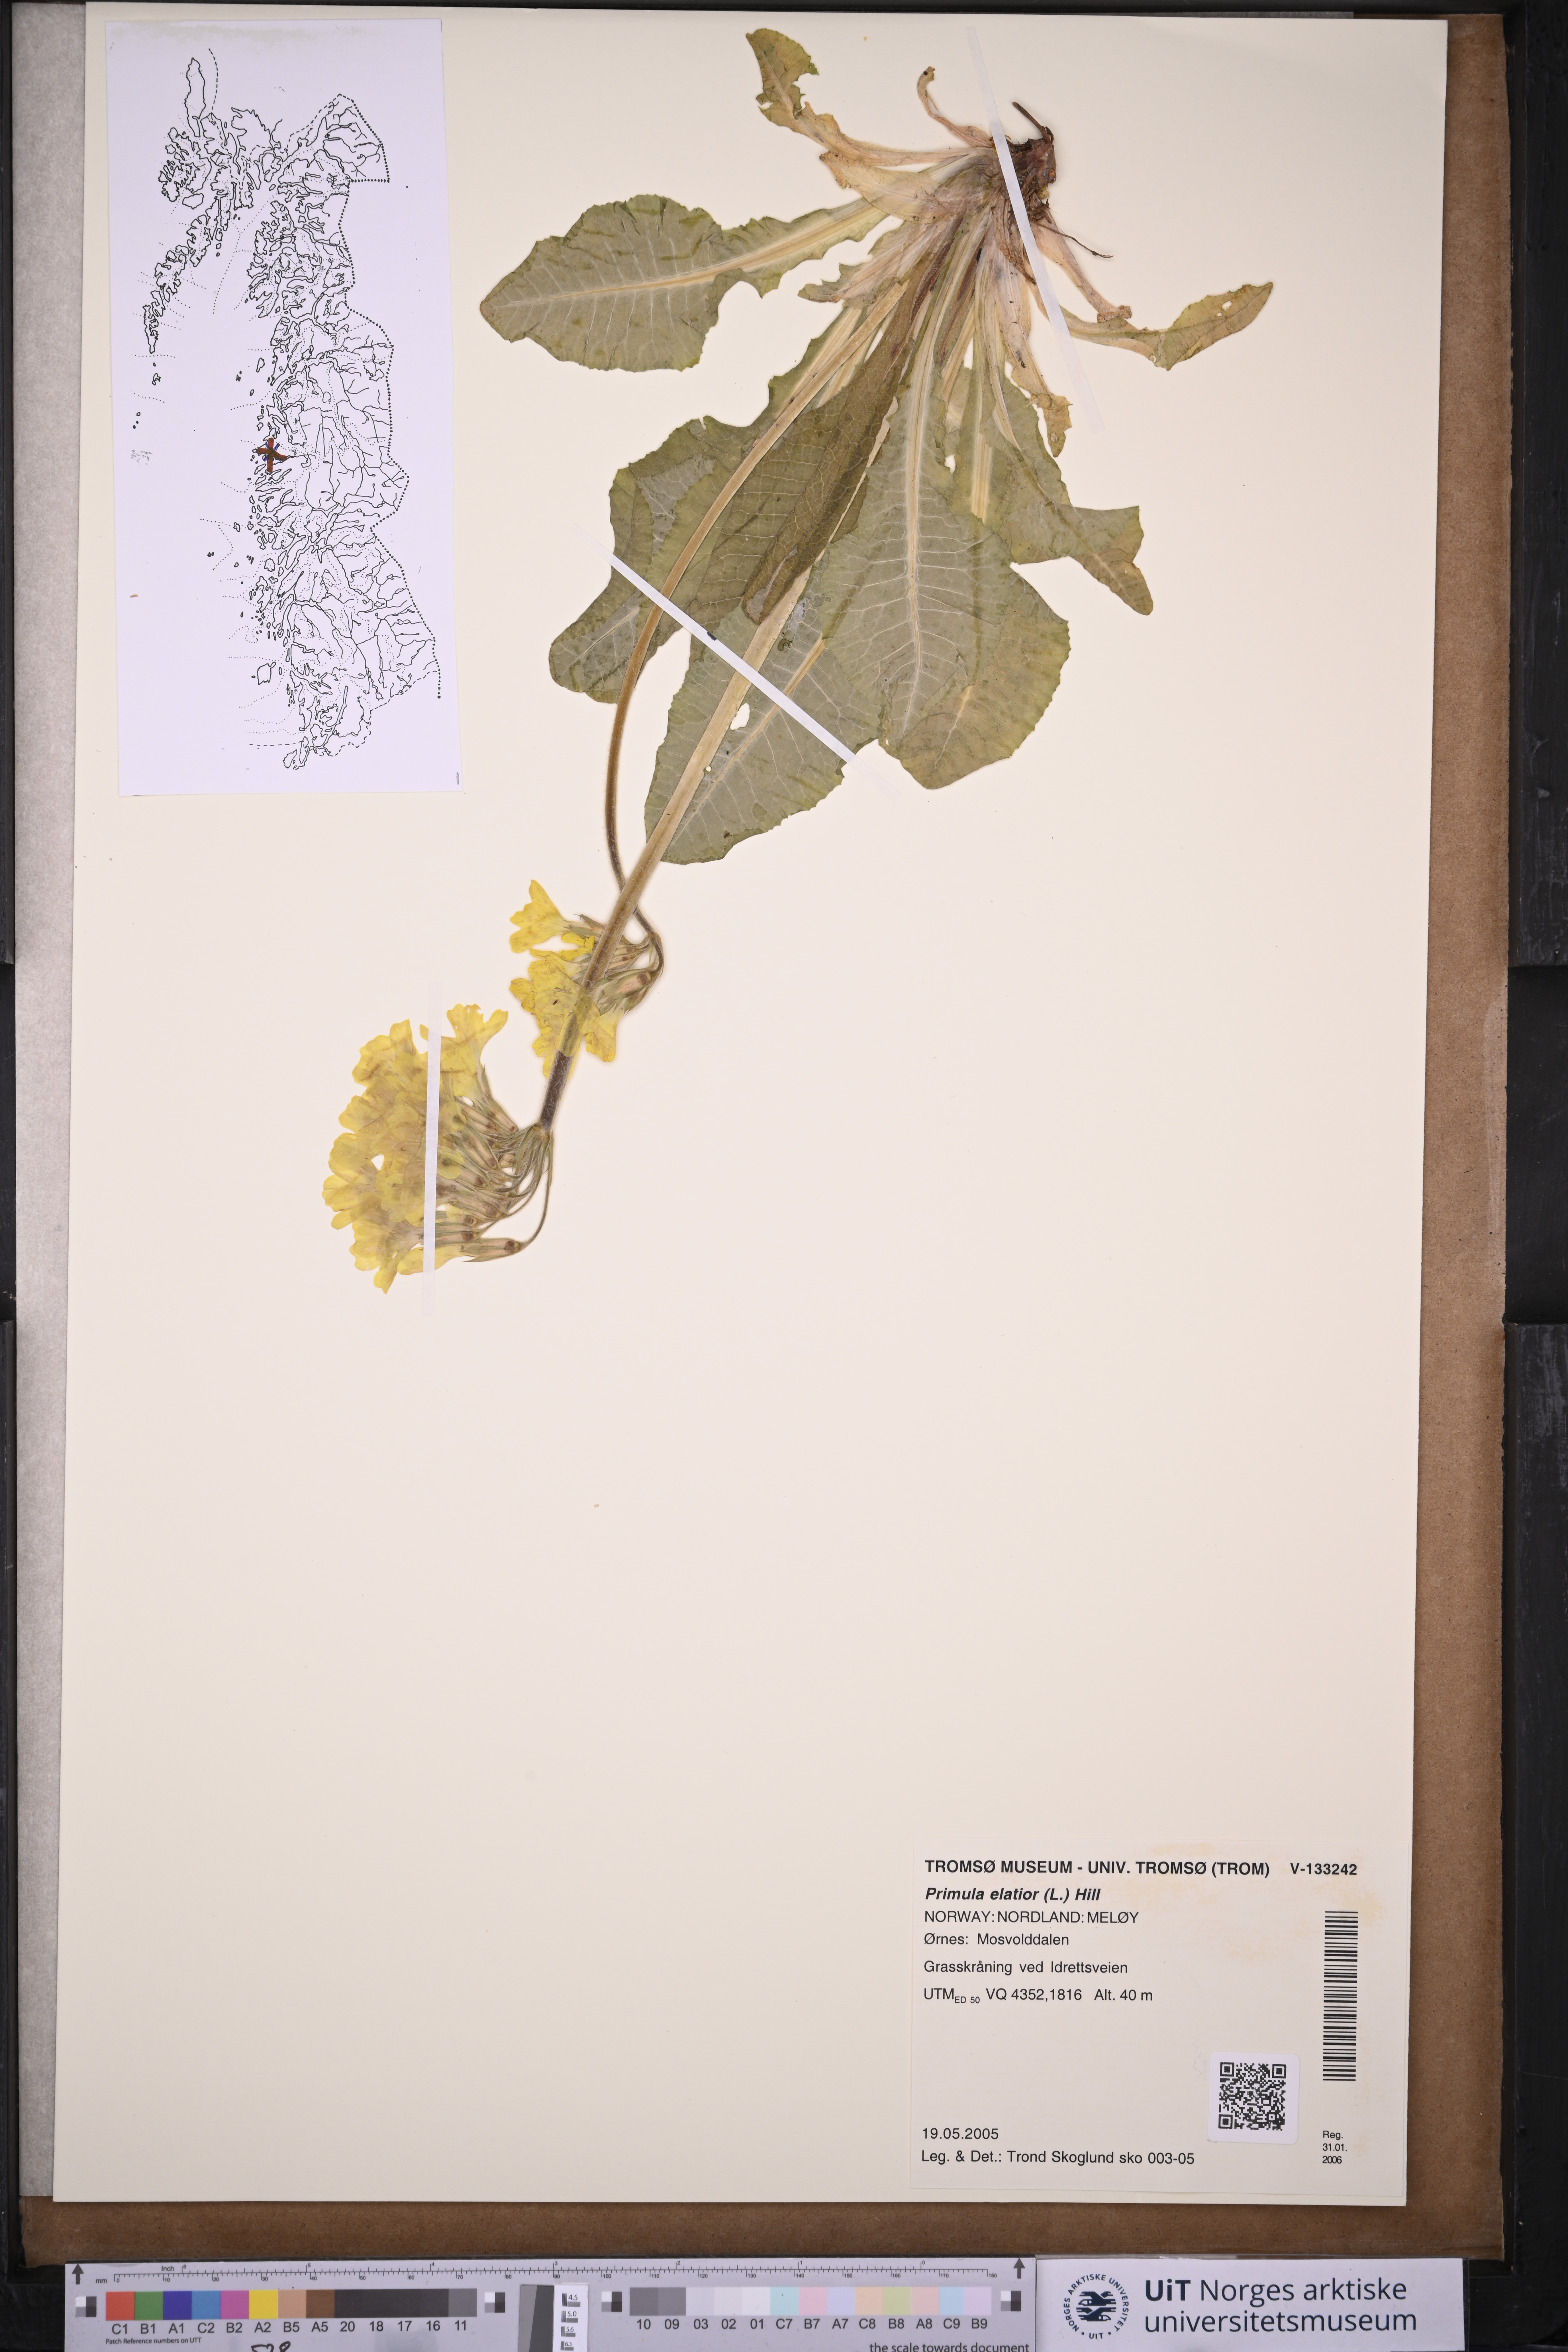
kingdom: Plantae
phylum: Tracheophyta
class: Magnoliopsida
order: Ericales
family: Primulaceae
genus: Primula
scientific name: Primula elatior
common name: Oxlip
